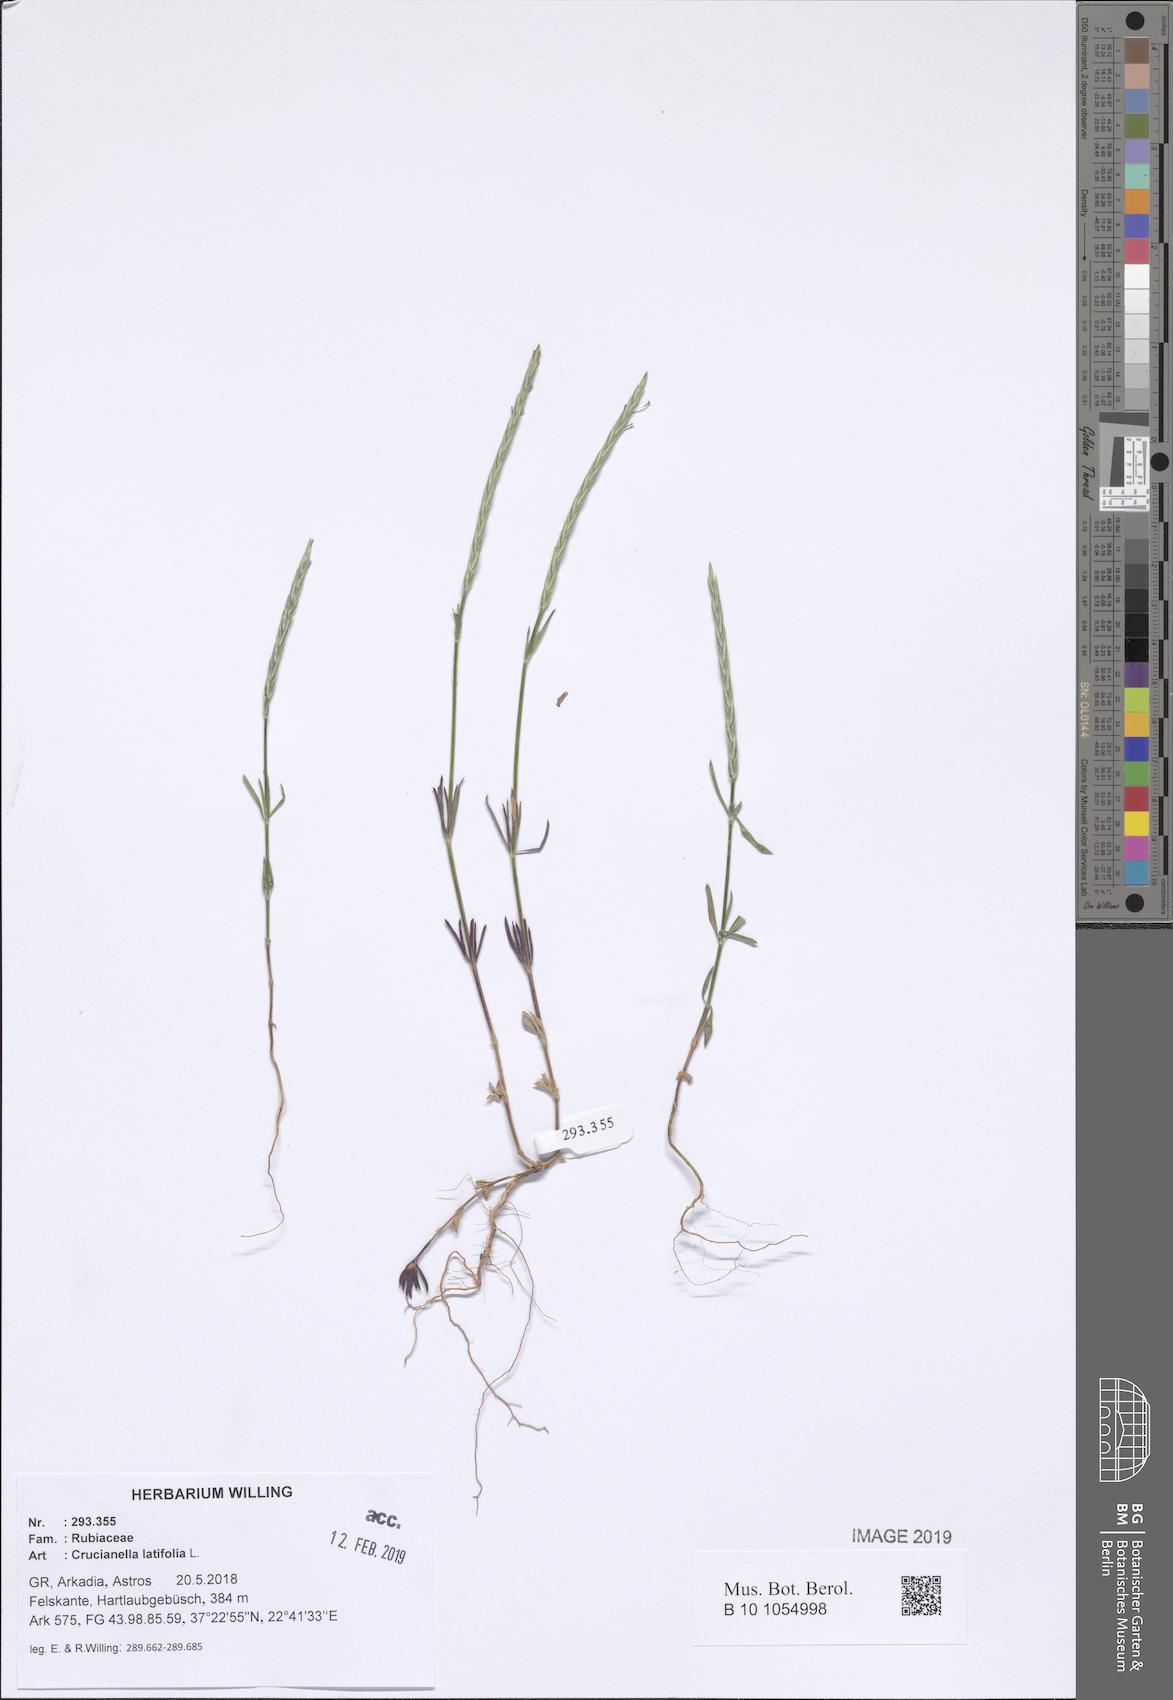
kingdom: Plantae
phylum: Tracheophyta
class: Magnoliopsida
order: Gentianales
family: Rubiaceae
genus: Crucianella
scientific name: Crucianella latifolia
